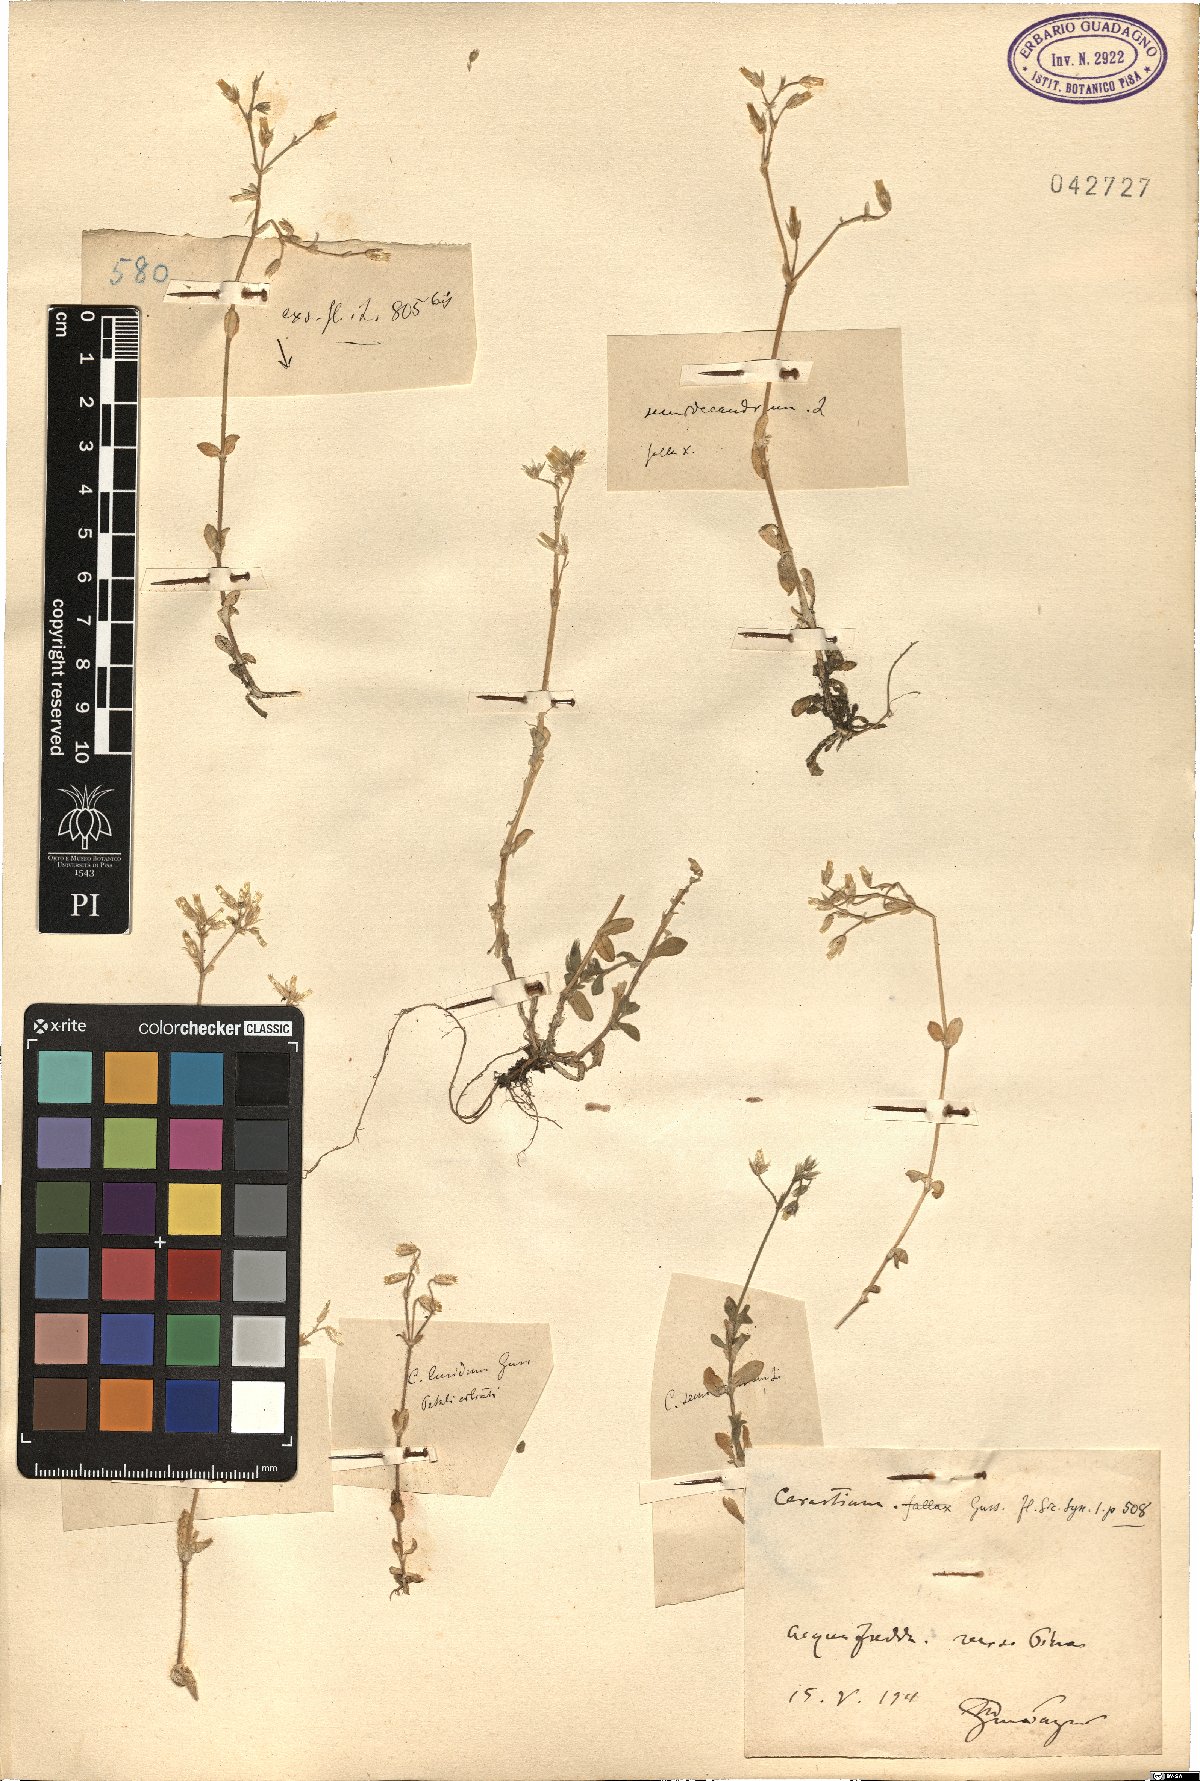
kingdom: Plantae
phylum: Tracheophyta
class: Magnoliopsida
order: Caryophyllales
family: Caryophyllaceae
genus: Cerastium
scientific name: Cerastium semidecandrum
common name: Little mouse-ear
